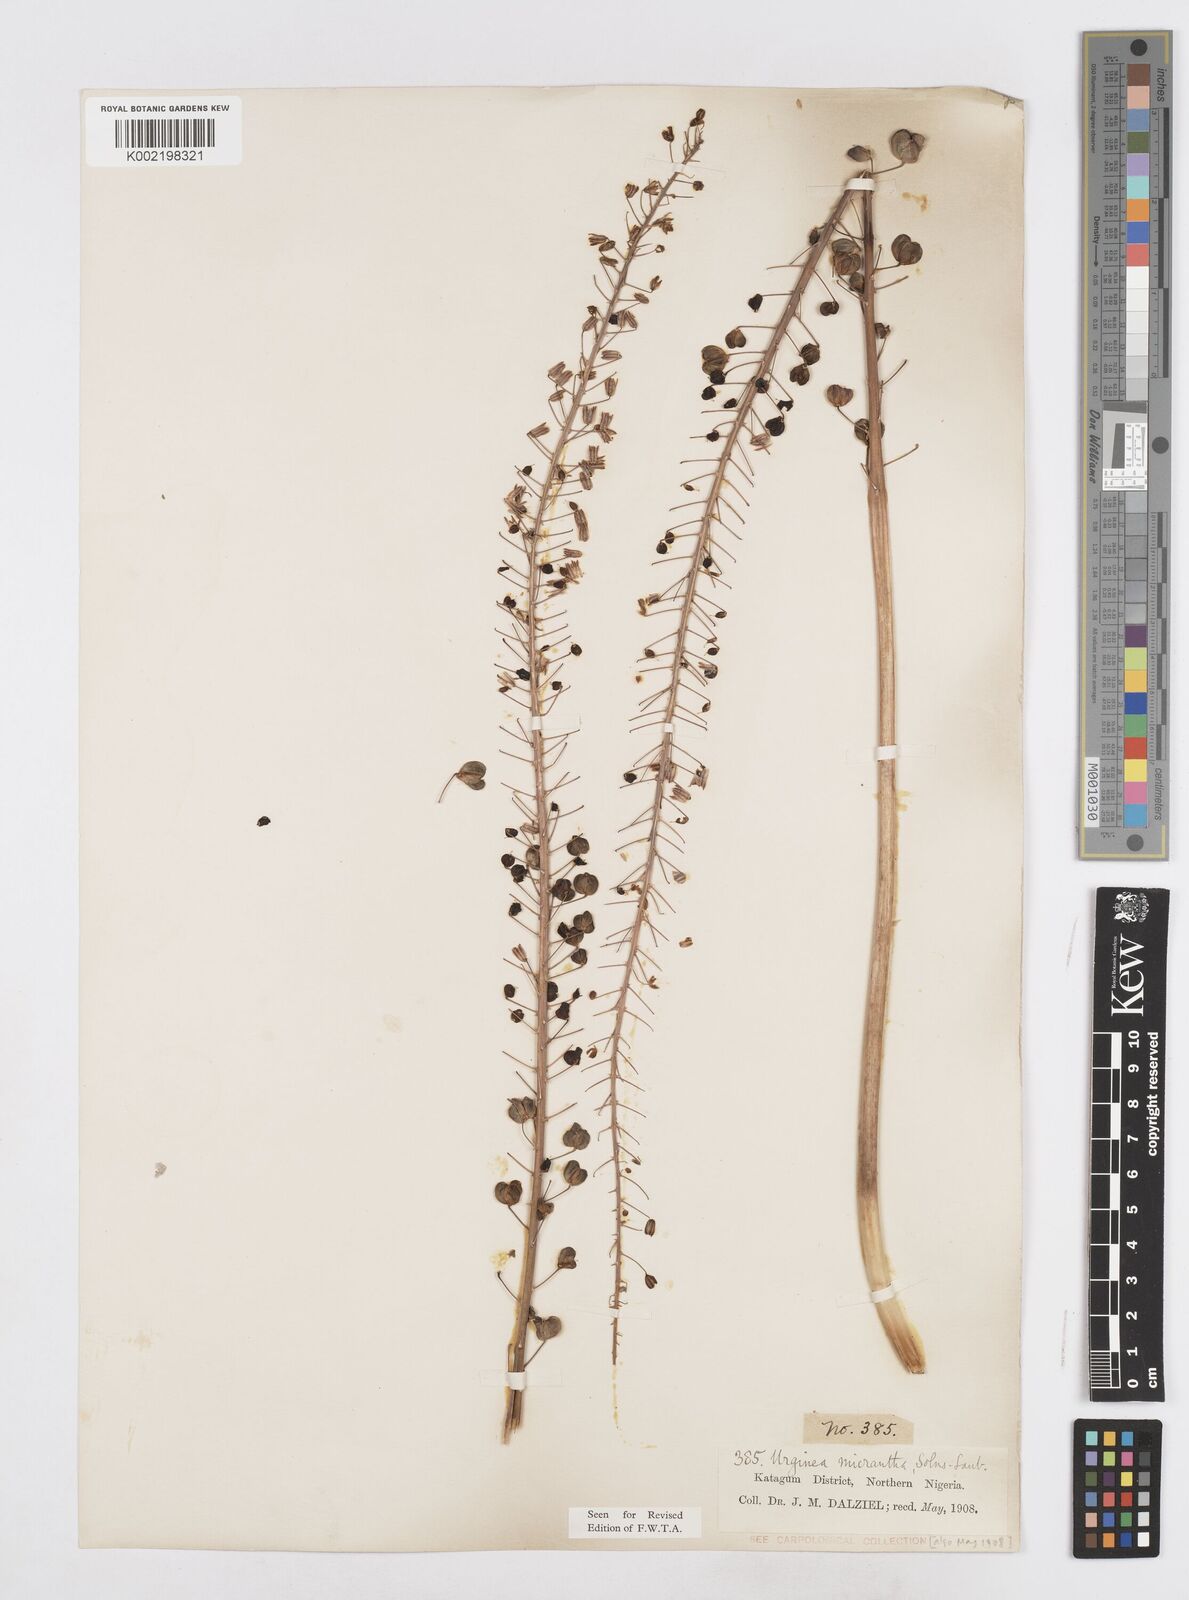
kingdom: Plantae
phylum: Tracheophyta
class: Liliopsida
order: Asparagales
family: Asparagaceae
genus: Drimia
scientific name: Drimia altissima
